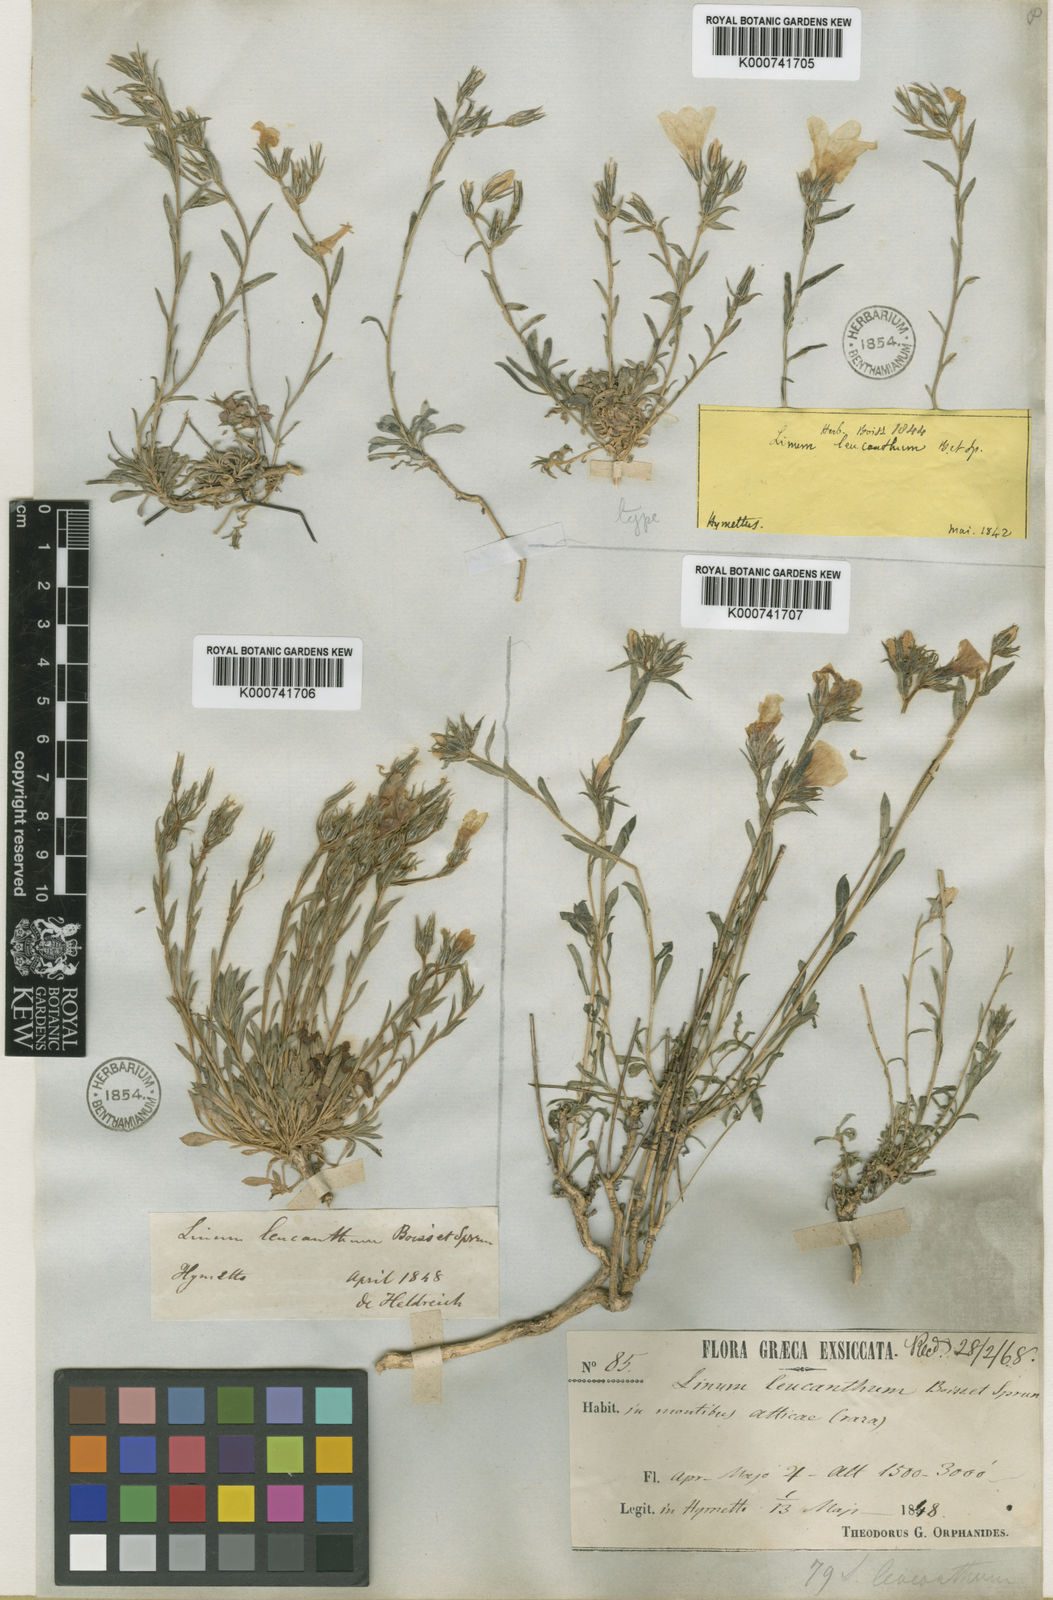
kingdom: Plantae
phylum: Tracheophyta
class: Magnoliopsida
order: Malpighiales
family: Linaceae
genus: Linum
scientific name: Linum leucanthum
